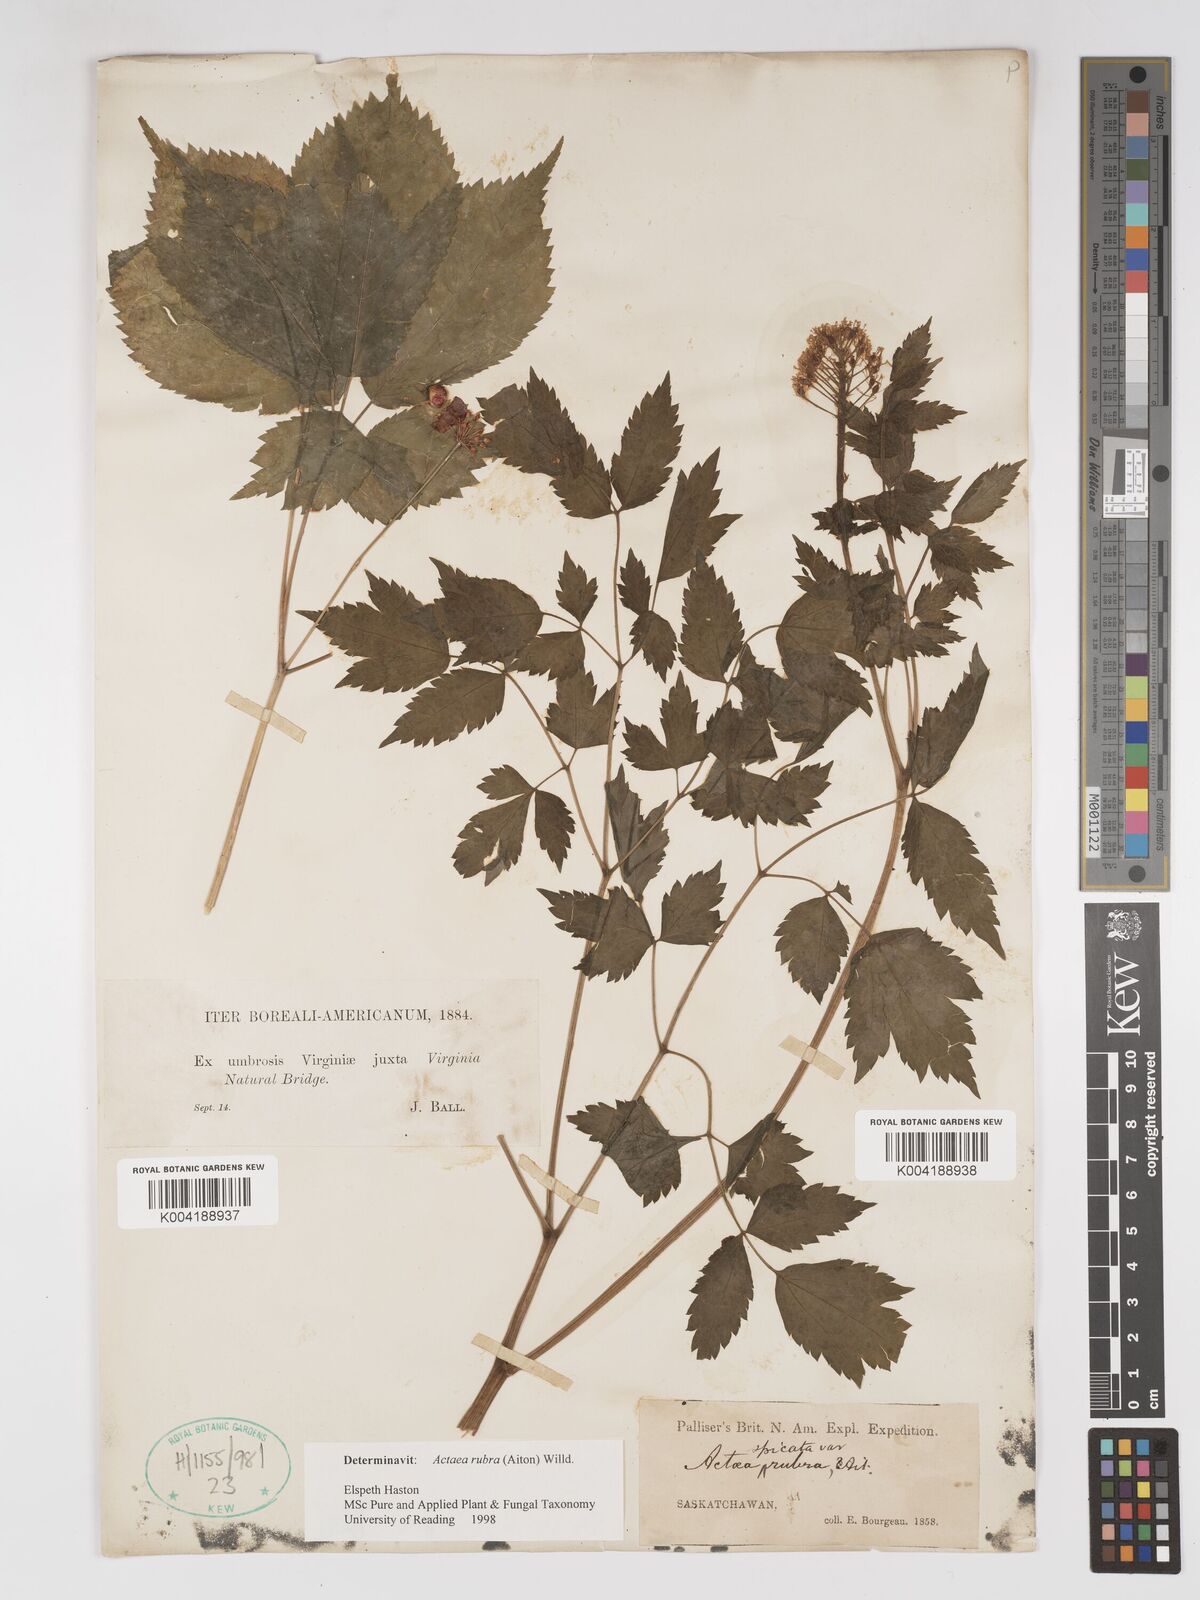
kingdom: Plantae
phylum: Tracheophyta
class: Magnoliopsida
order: Ranunculales
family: Ranunculaceae
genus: Actaea
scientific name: Actaea rubra
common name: Red baneberry
